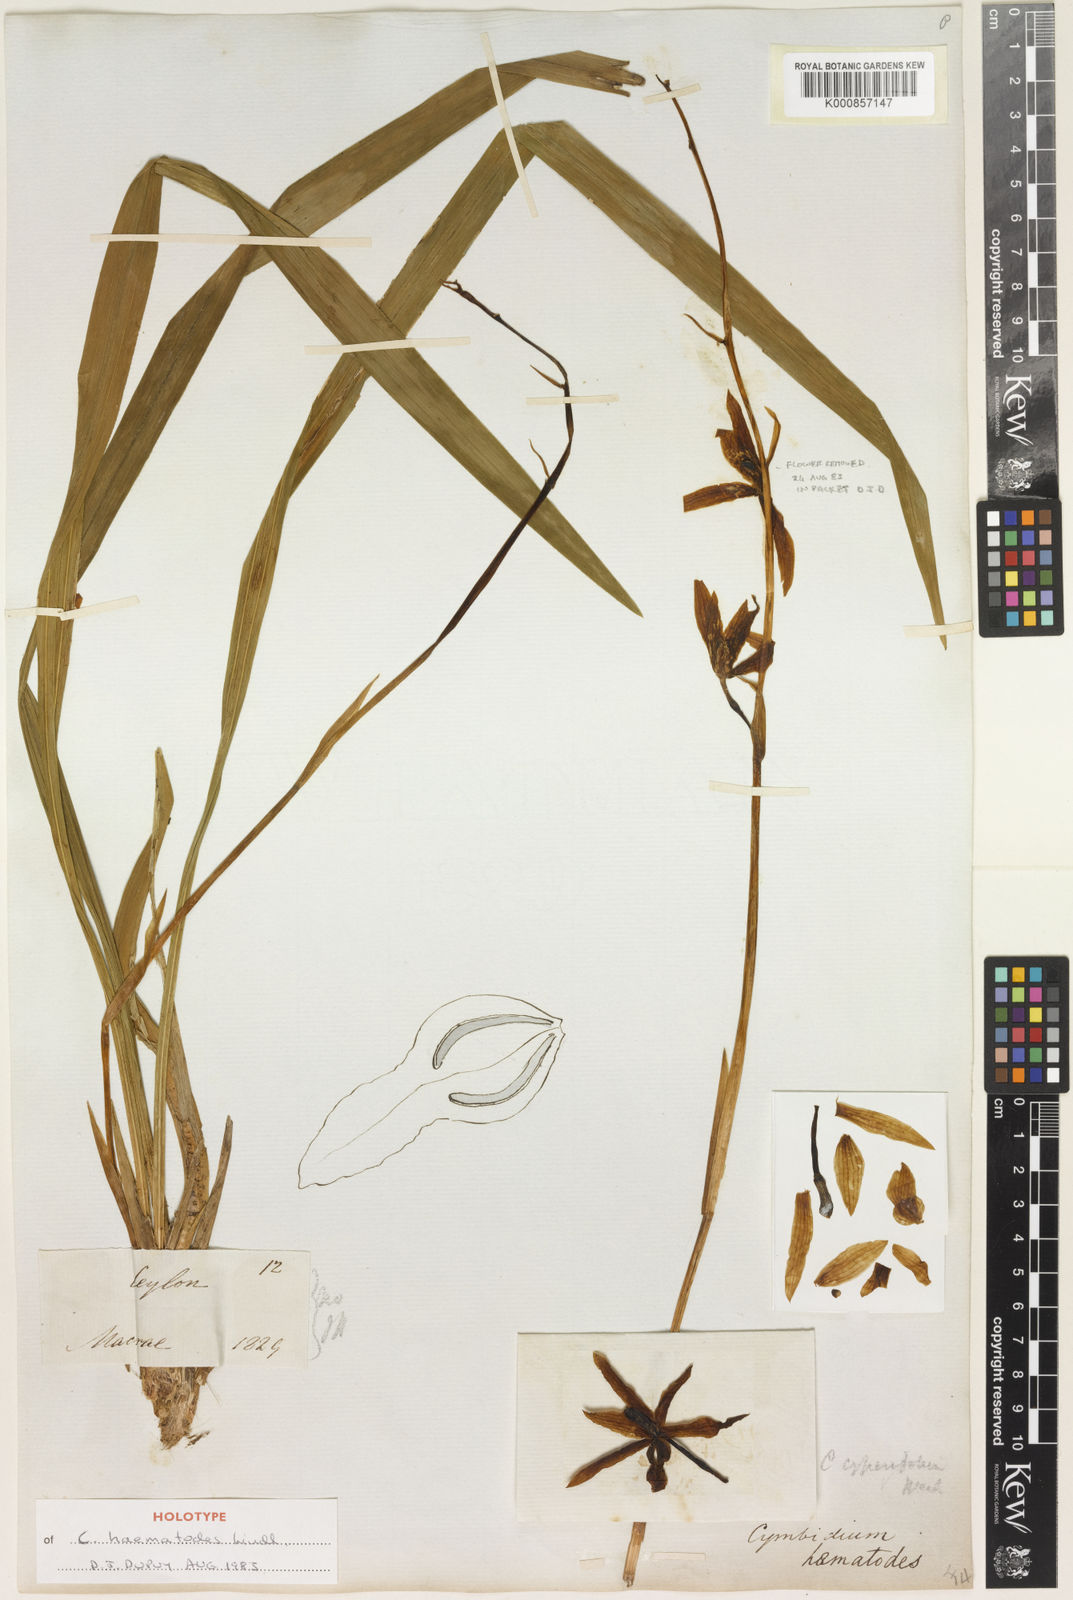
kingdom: Plantae
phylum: Tracheophyta
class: Liliopsida
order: Asparagales
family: Orchidaceae
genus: Cymbidium
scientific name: Cymbidium haematodes
